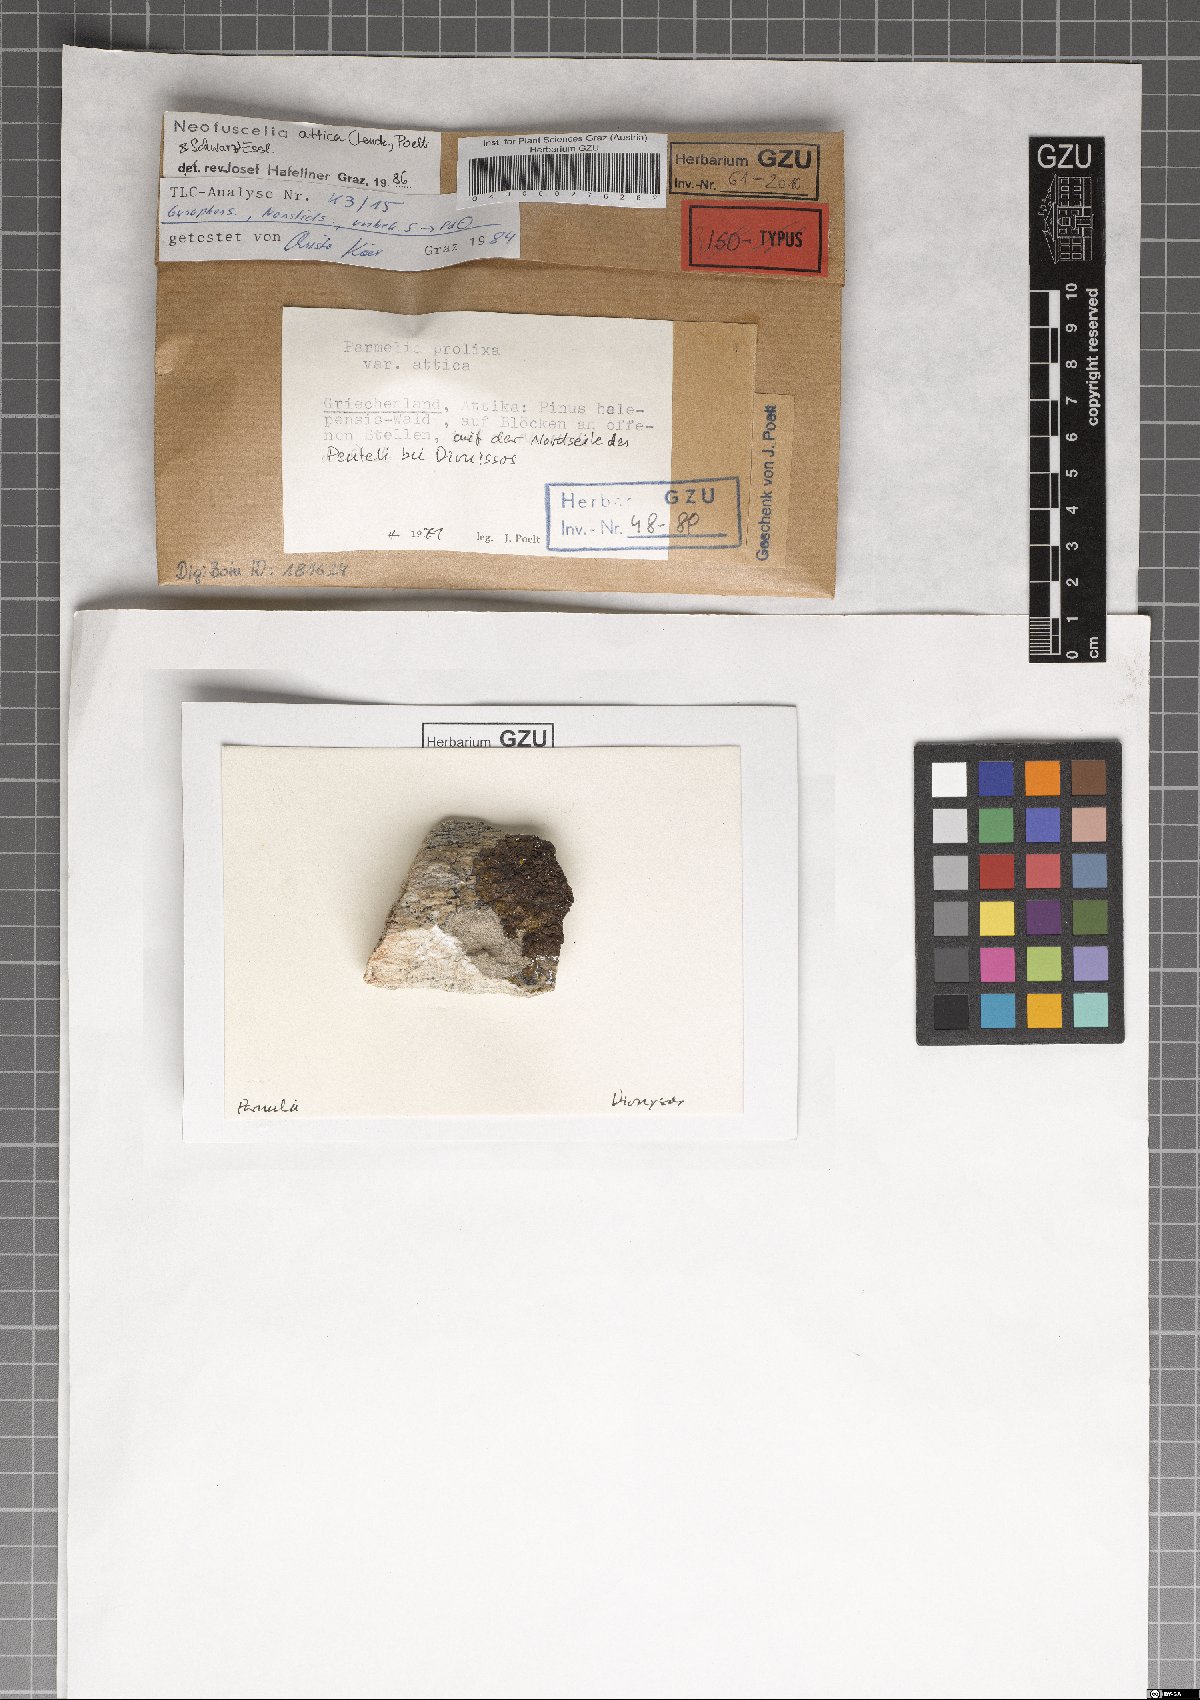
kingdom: Fungi
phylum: Ascomycota
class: Lecanoromycetes
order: Lecanorales
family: Parmeliaceae
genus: Parmelinella
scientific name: Parmelinella
